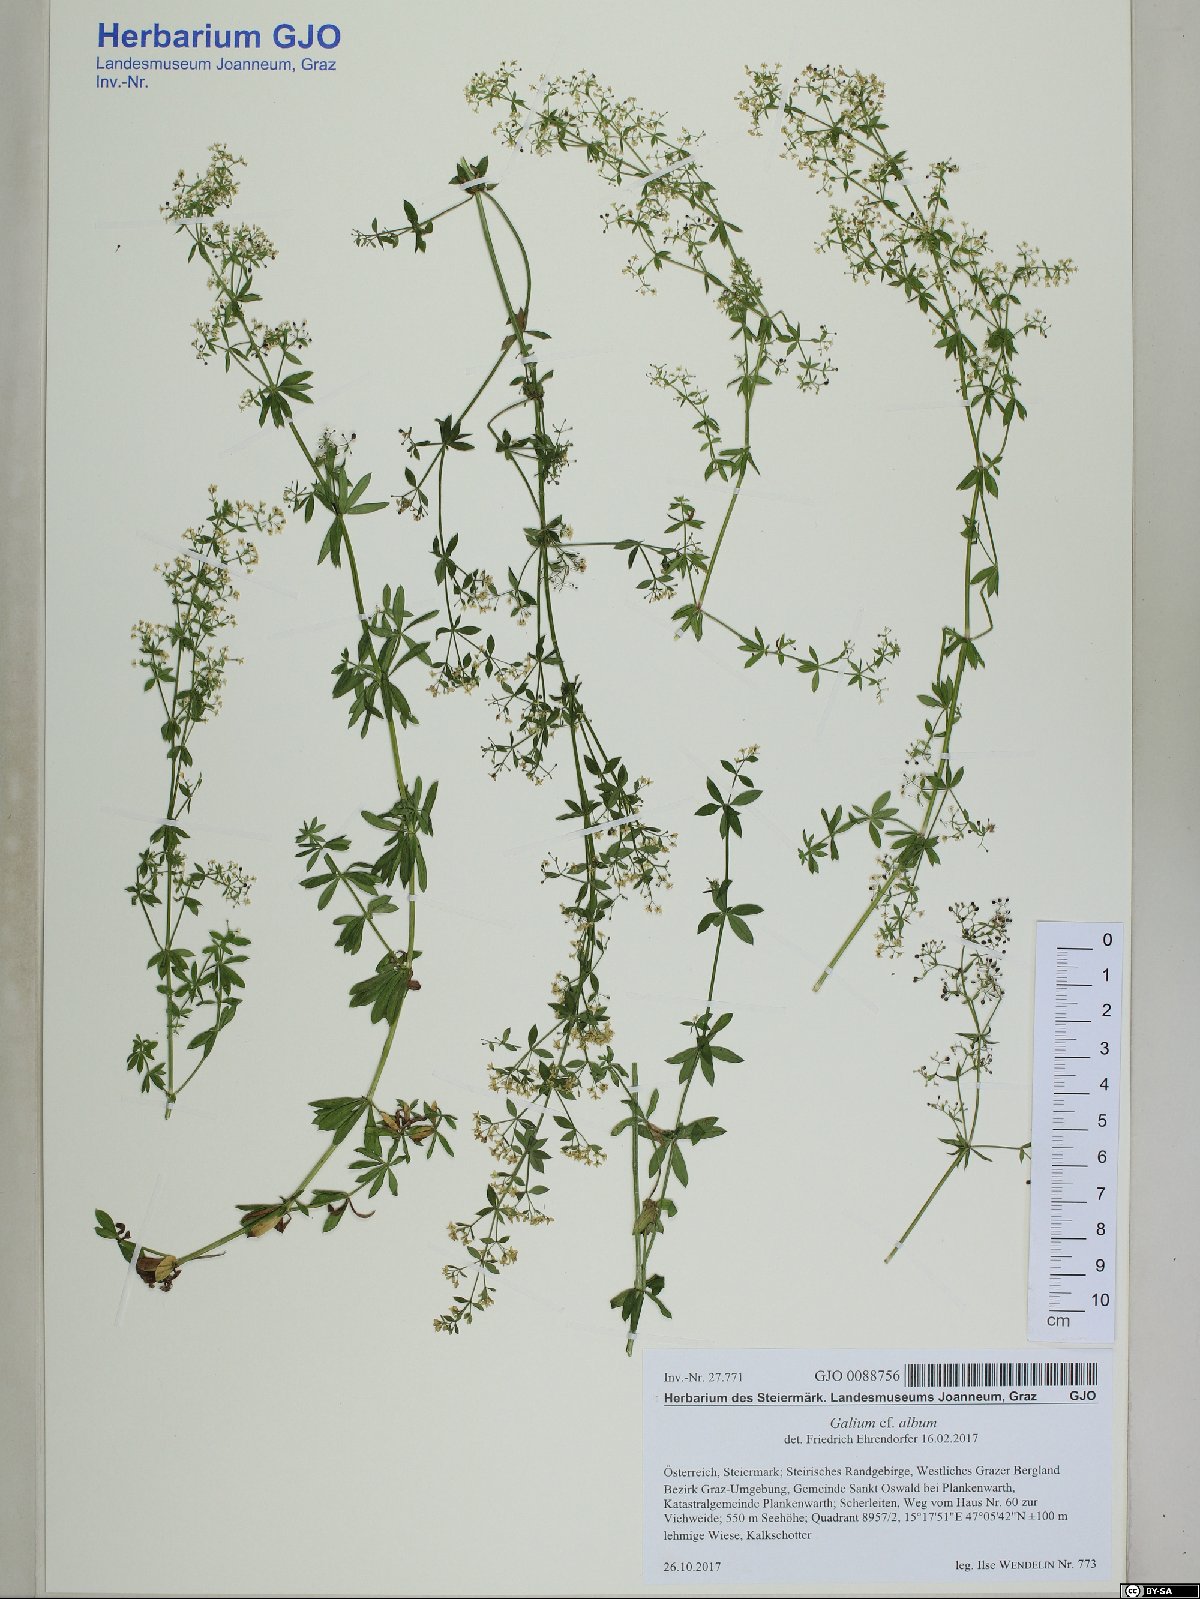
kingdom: Plantae
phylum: Tracheophyta
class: Magnoliopsida
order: Gentianales
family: Rubiaceae
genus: Galium
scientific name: Galium album
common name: White bedstraw
